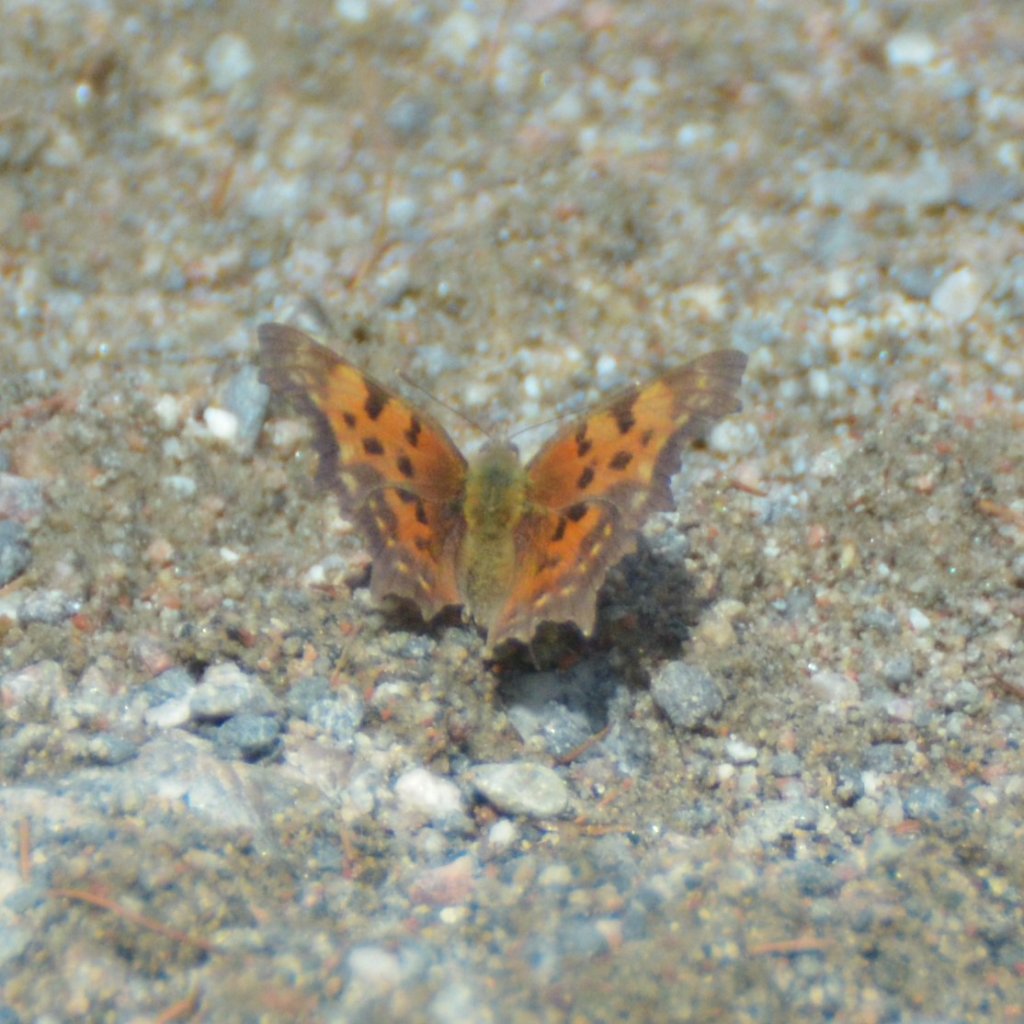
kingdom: Animalia
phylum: Arthropoda
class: Insecta
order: Lepidoptera
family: Nymphalidae
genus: Polygonia
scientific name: Polygonia faunus
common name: Green Comma
